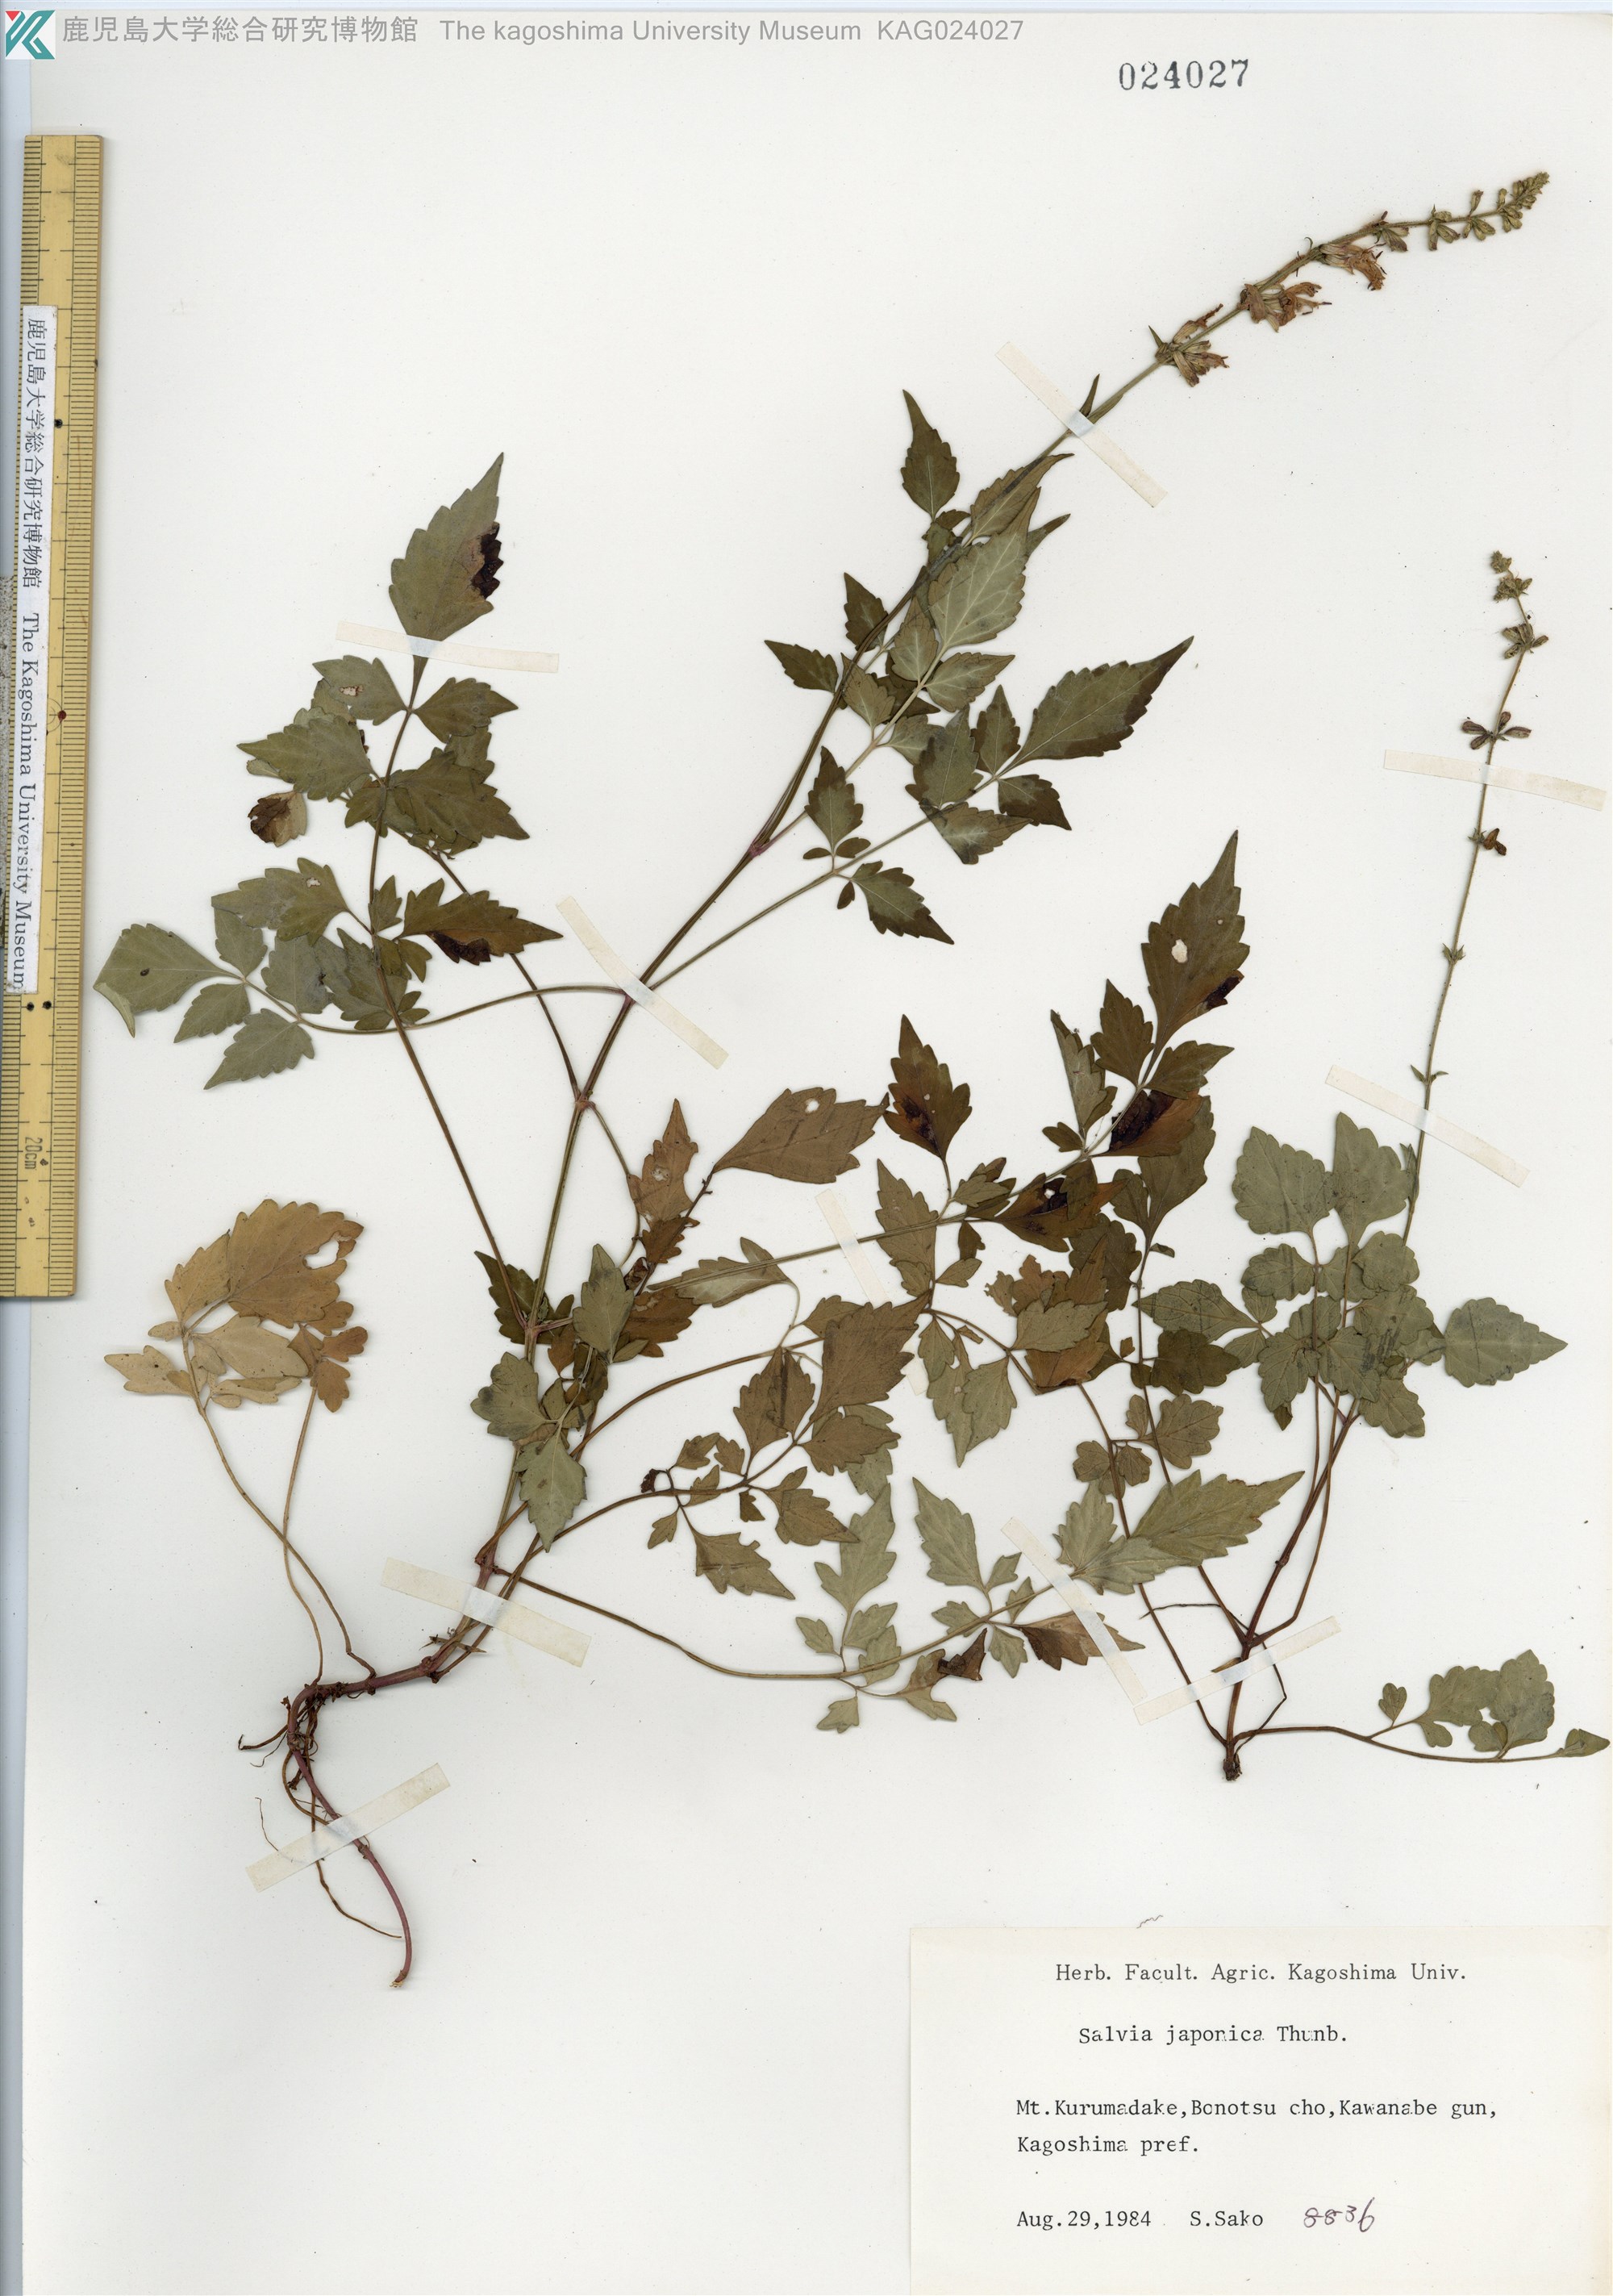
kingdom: Plantae
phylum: Tracheophyta
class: Magnoliopsida
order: Lamiales
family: Lamiaceae
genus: Salvia
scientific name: Salvia
